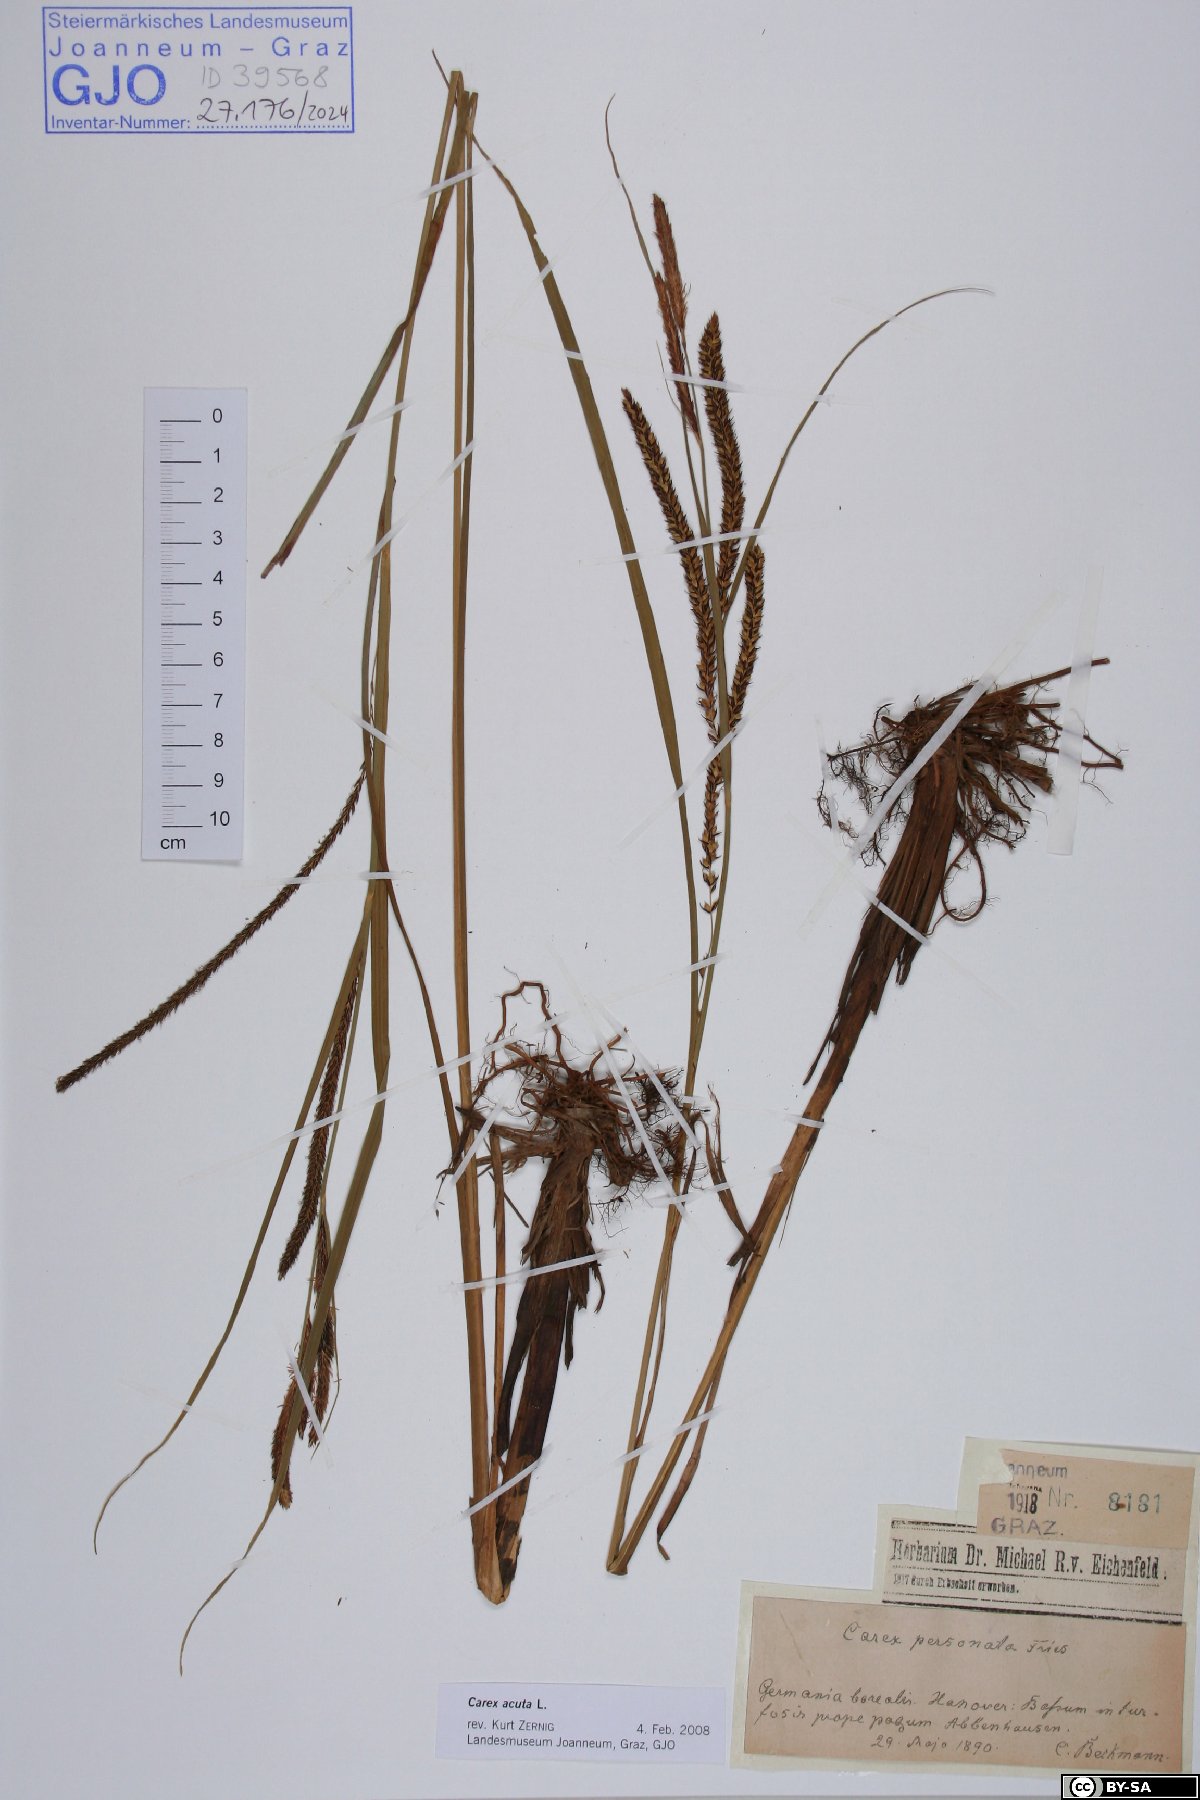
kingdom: Plantae
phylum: Tracheophyta
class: Liliopsida
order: Poales
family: Cyperaceae
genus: Carex
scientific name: Carex acuta
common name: Slender tufted-sedge
